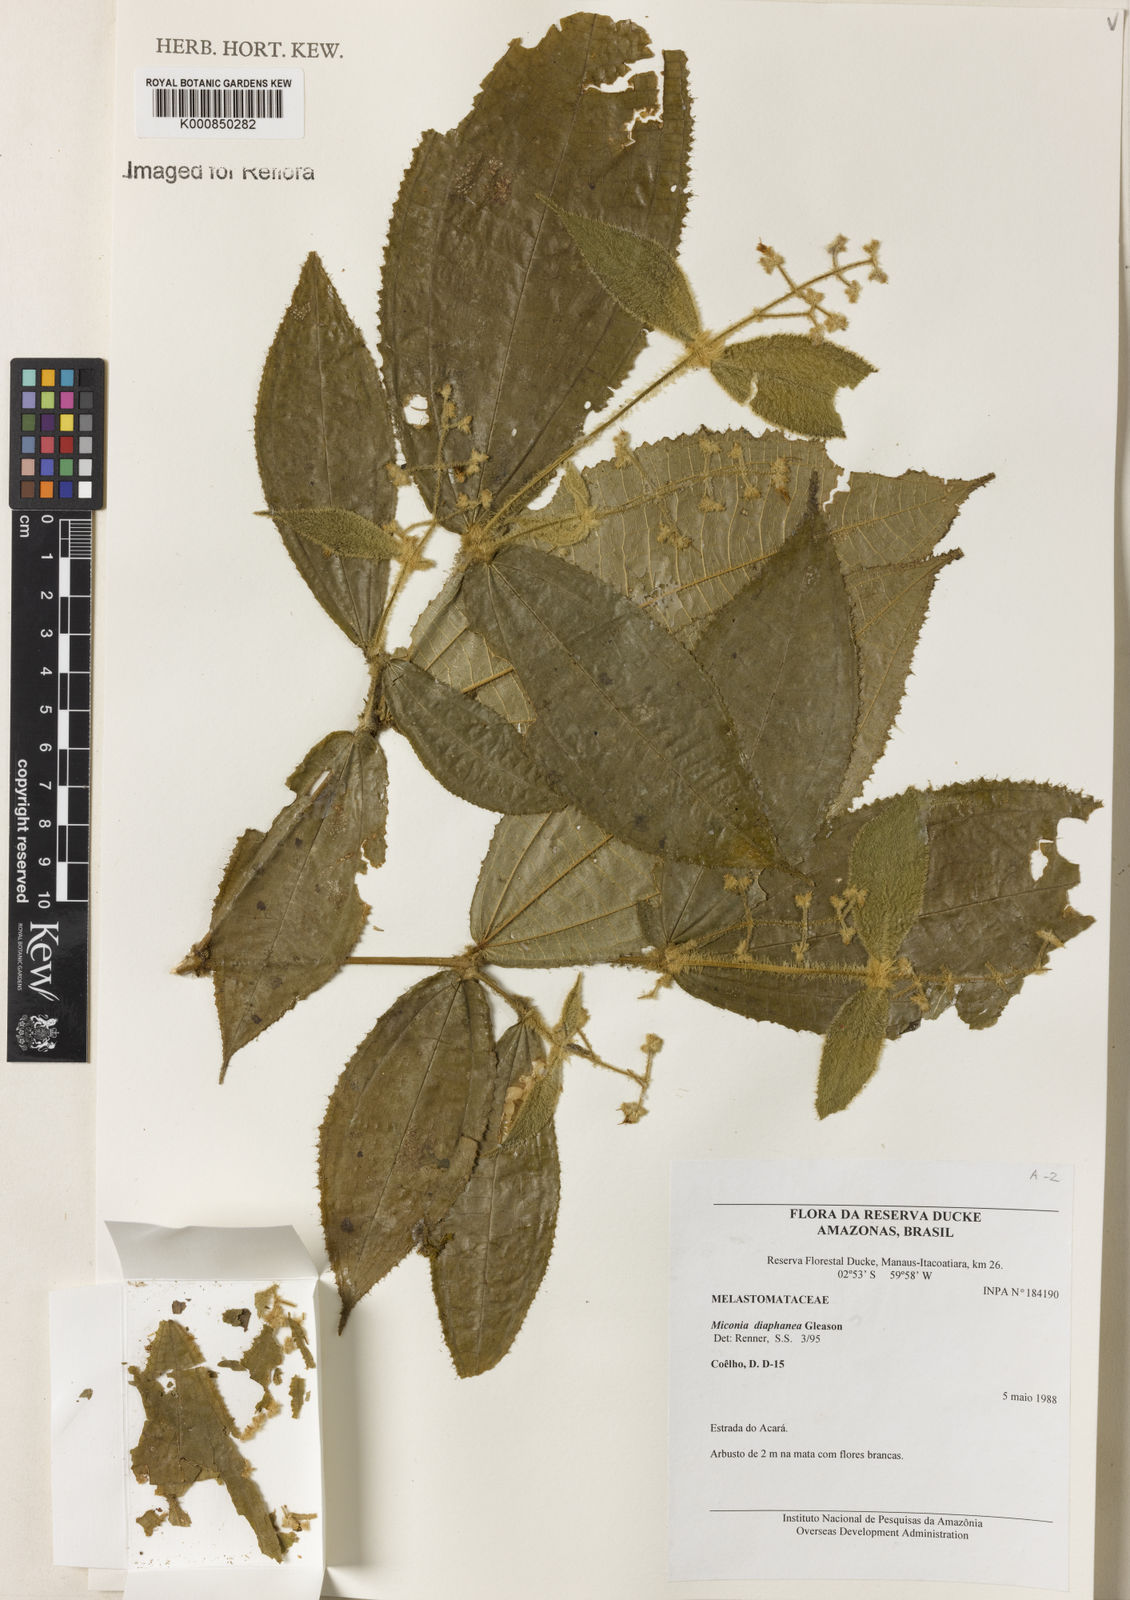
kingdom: Plantae
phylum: Tracheophyta
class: Magnoliopsida
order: Myrtales
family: Melastomataceae
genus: Miconia
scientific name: Miconia diaphanea
